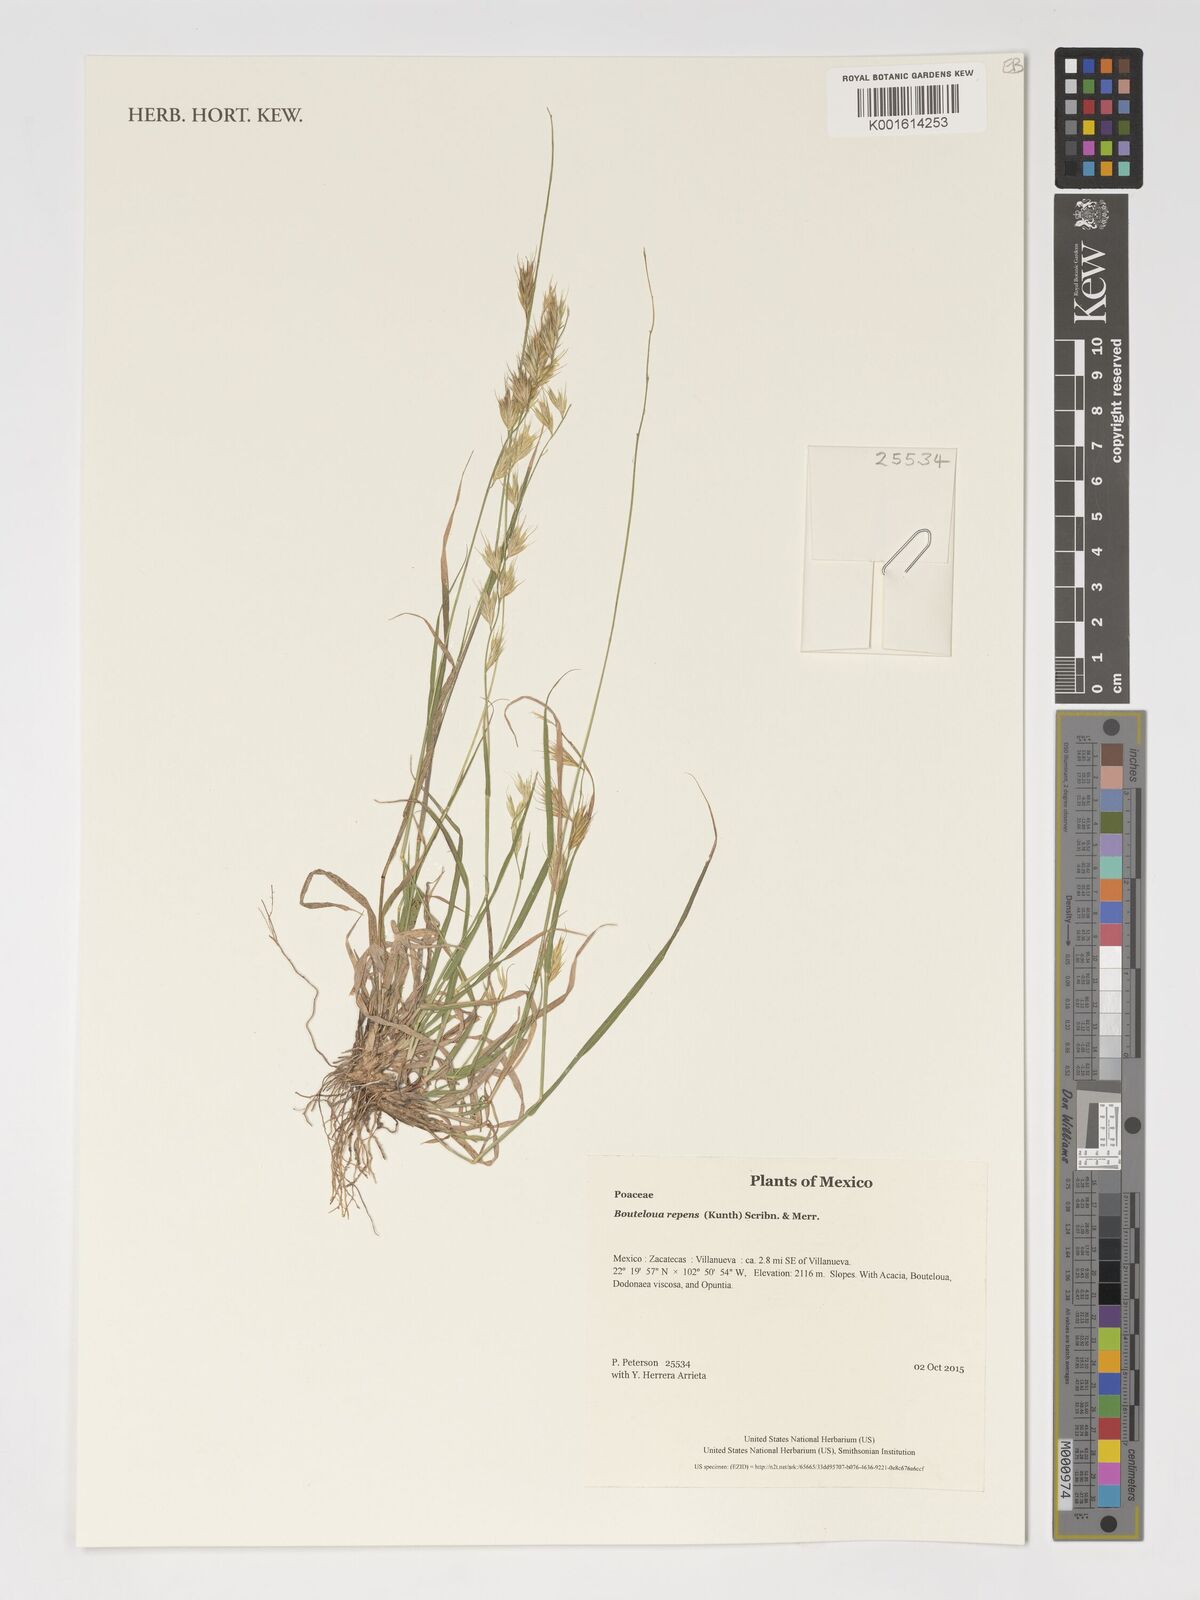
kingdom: Plantae
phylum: Tracheophyta
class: Liliopsida
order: Poales
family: Poaceae
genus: Bouteloua
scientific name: Bouteloua repens
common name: Slender grama
